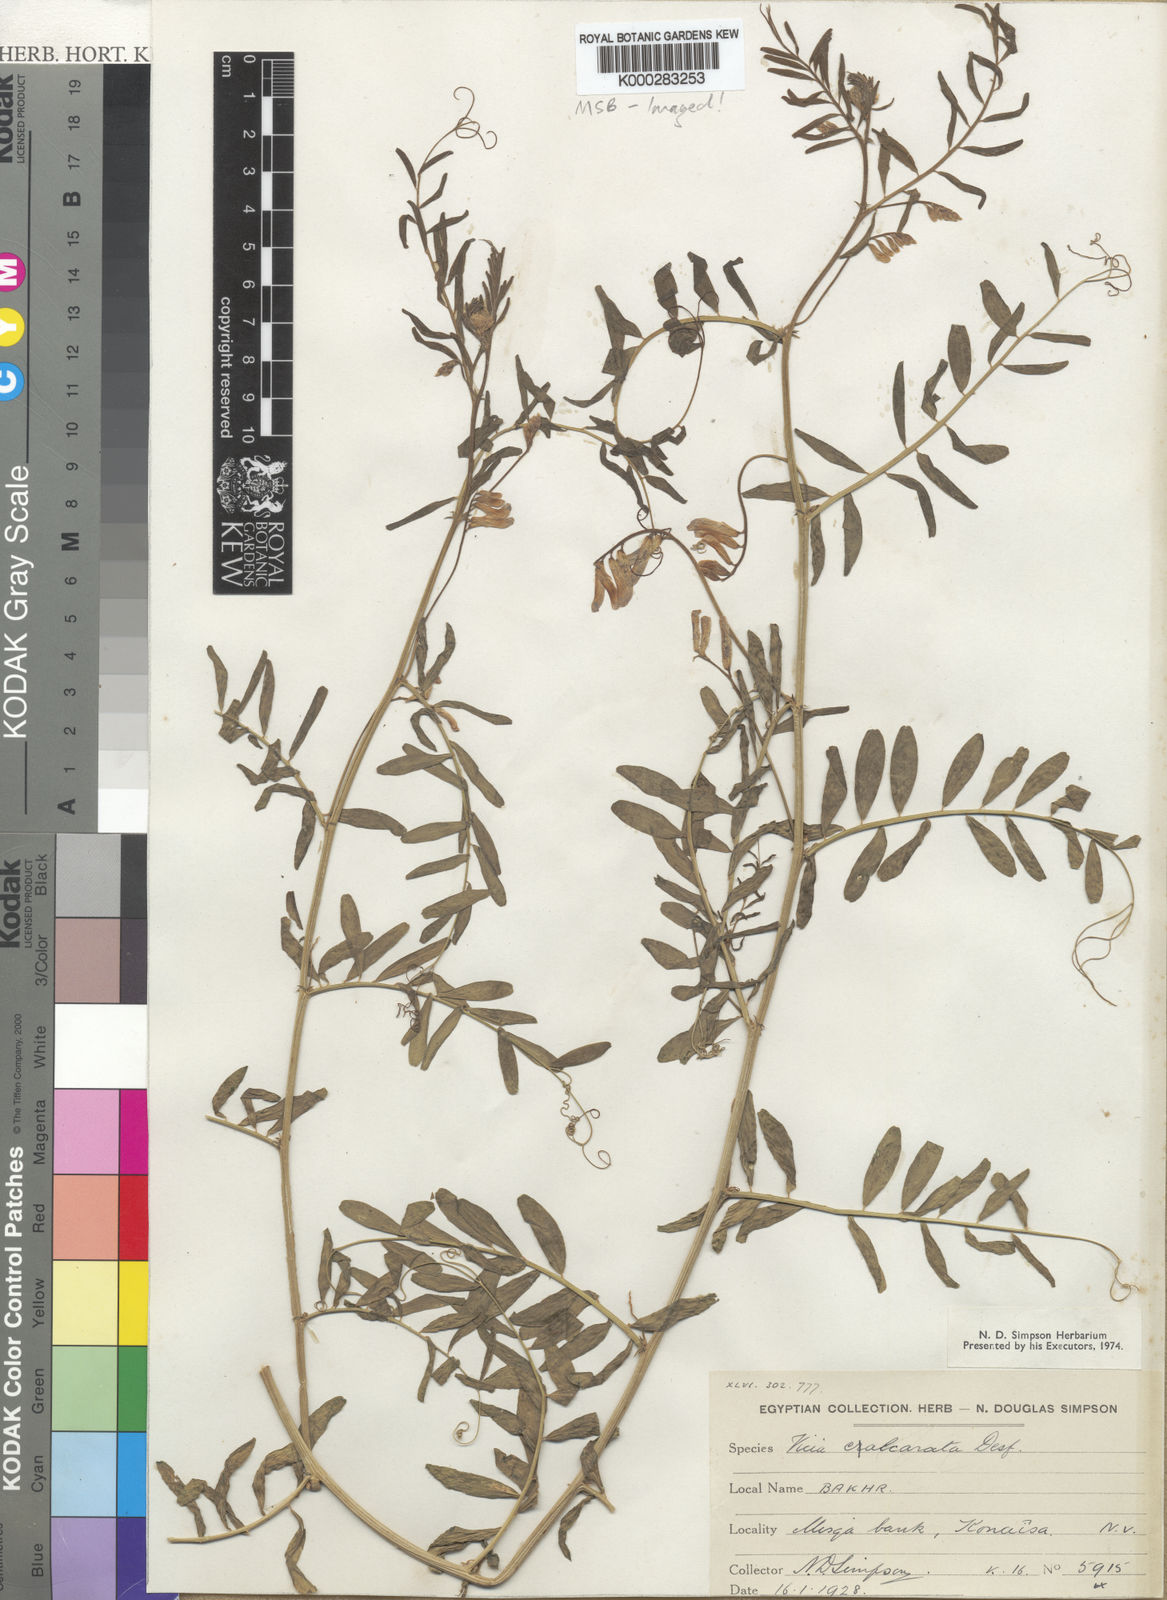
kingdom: Plantae
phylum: Tracheophyta
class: Magnoliopsida
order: Fabales
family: Fabaceae
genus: Vicia
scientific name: Vicia monantha
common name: Barn vetch
